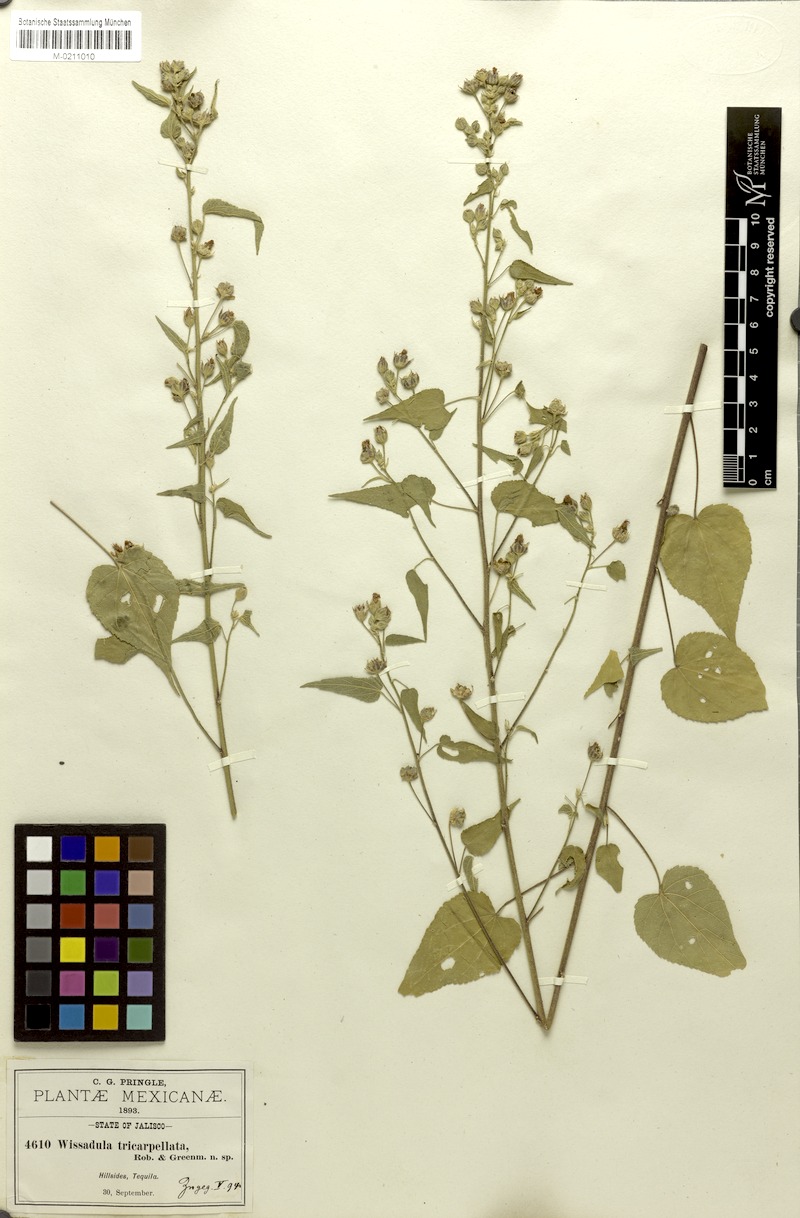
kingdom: Plantae
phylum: Tracheophyta
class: Magnoliopsida
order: Malvales
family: Malvaceae
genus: Bastardiastrum
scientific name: Bastardiastrum tricarpellatum
